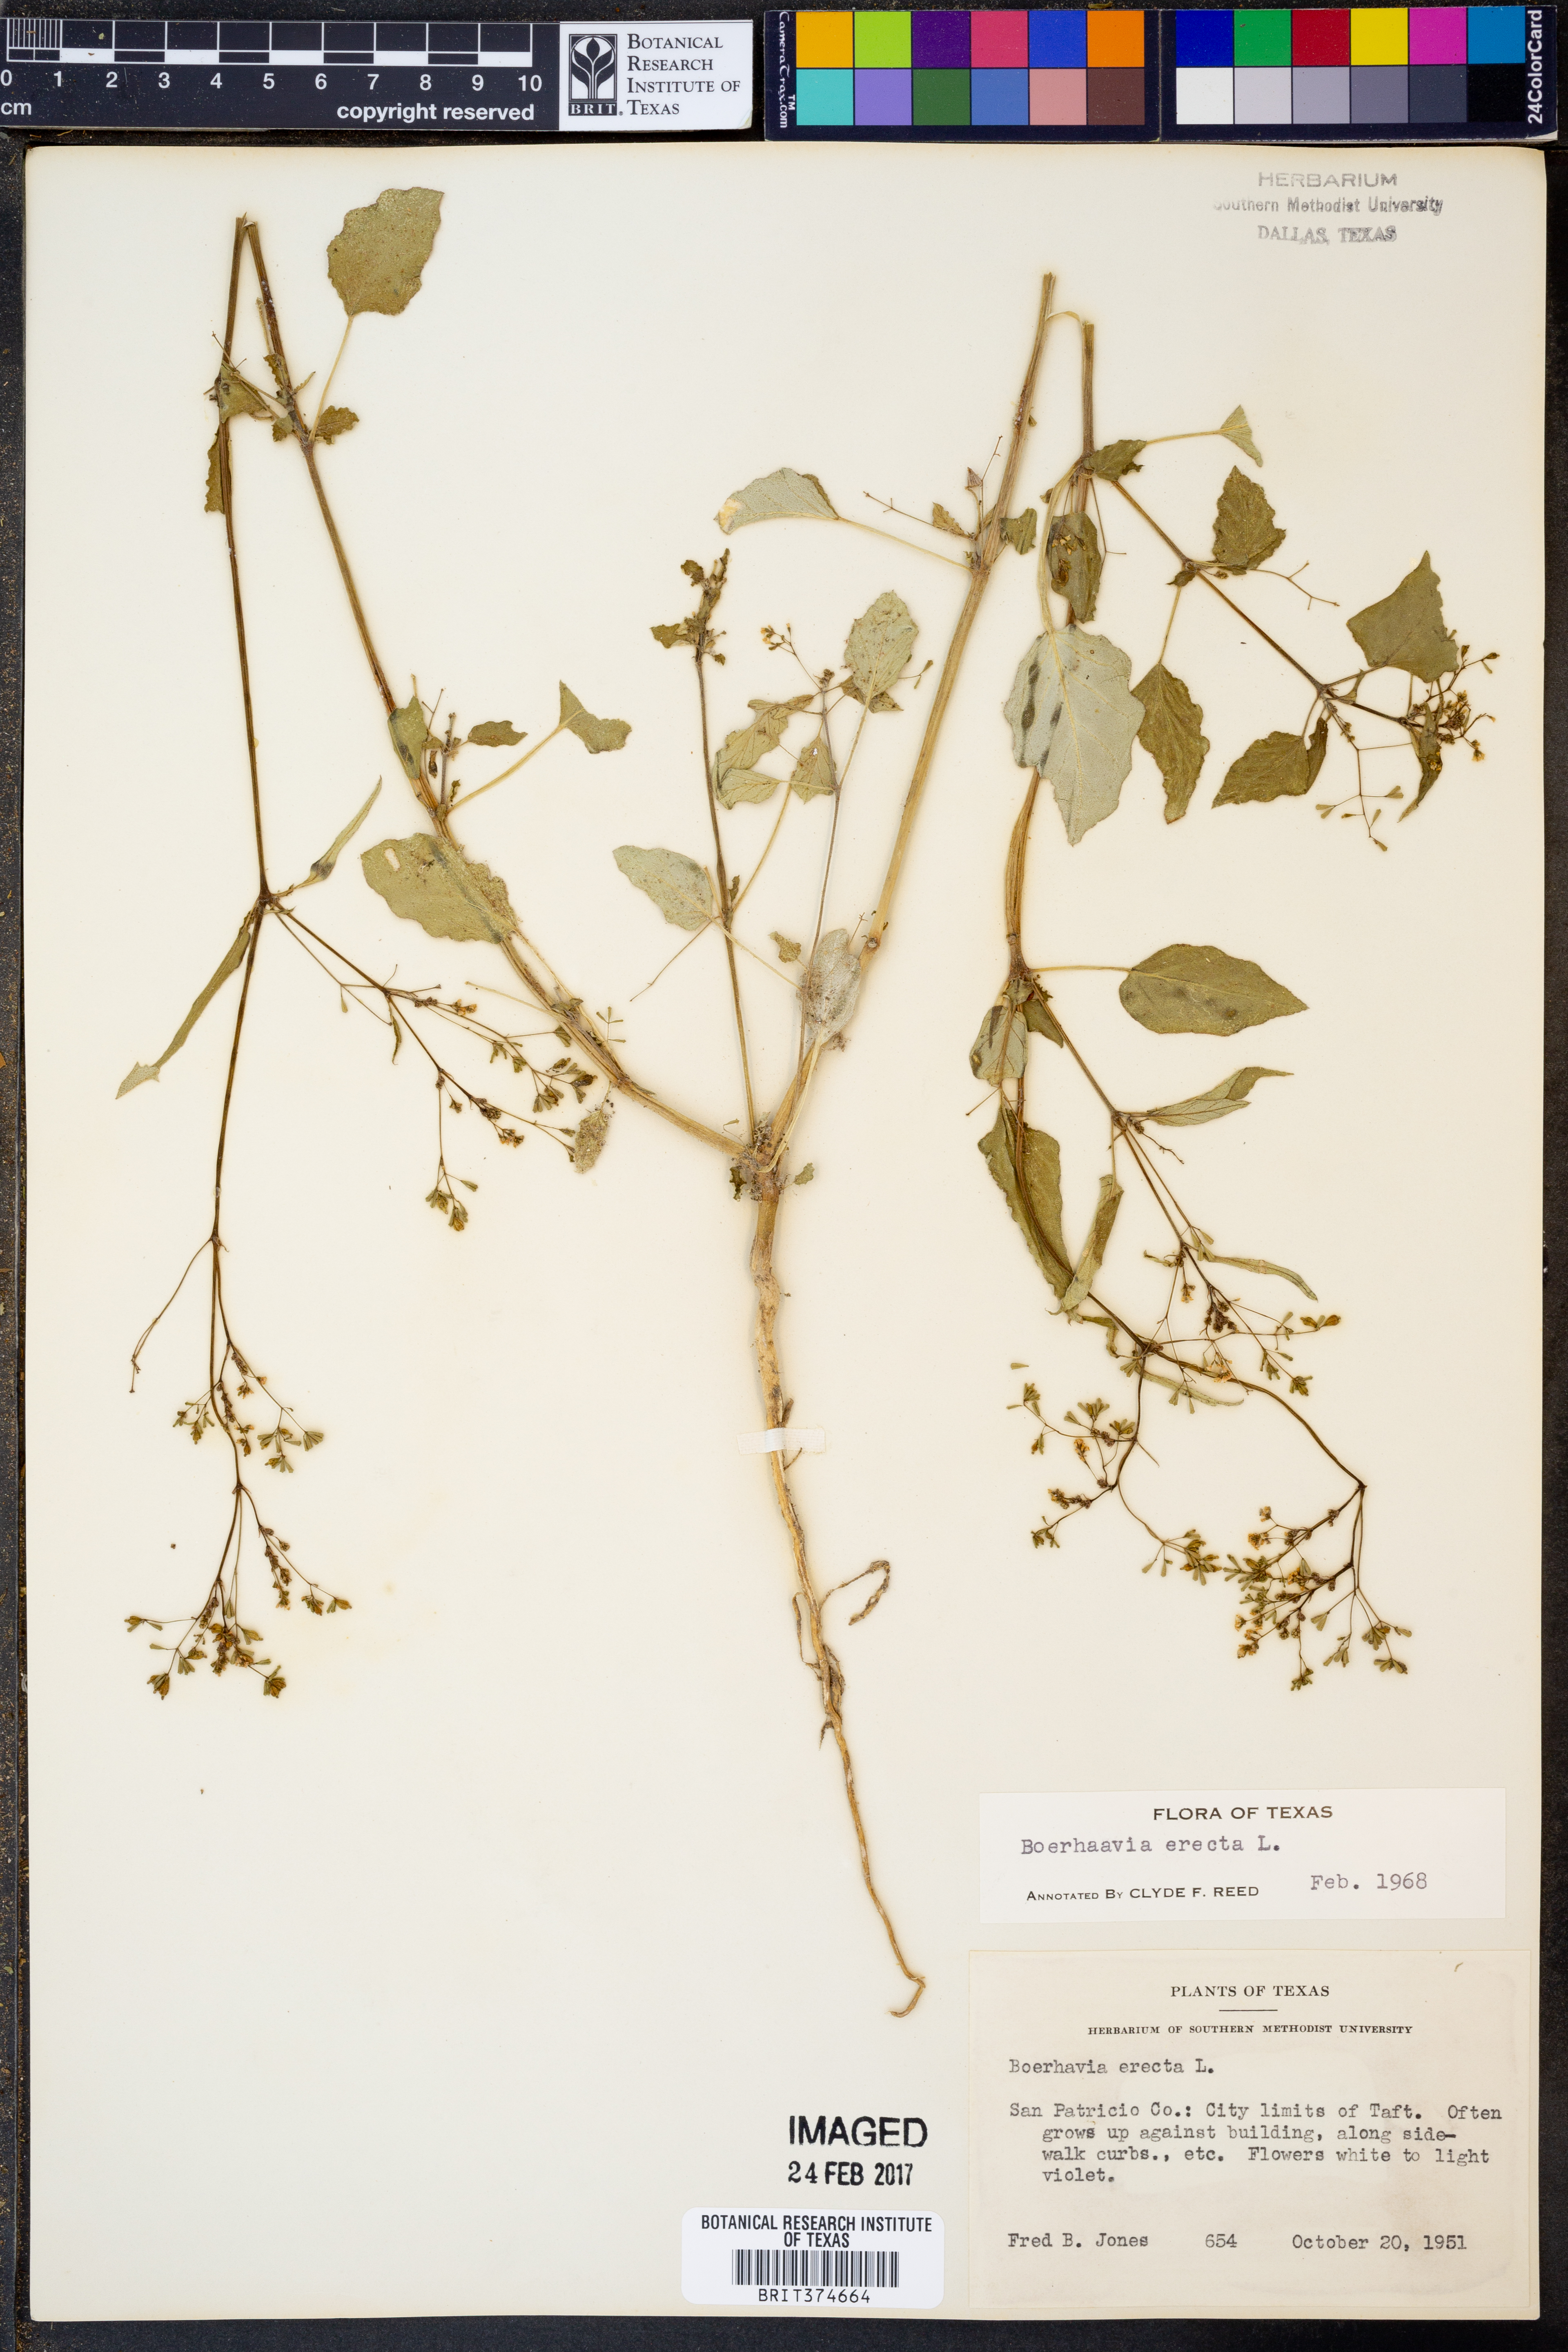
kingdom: Plantae
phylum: Tracheophyta
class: Magnoliopsida
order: Caryophyllales
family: Nyctaginaceae
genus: Boerhavia
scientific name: Boerhavia erecta
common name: Erect spiderling
